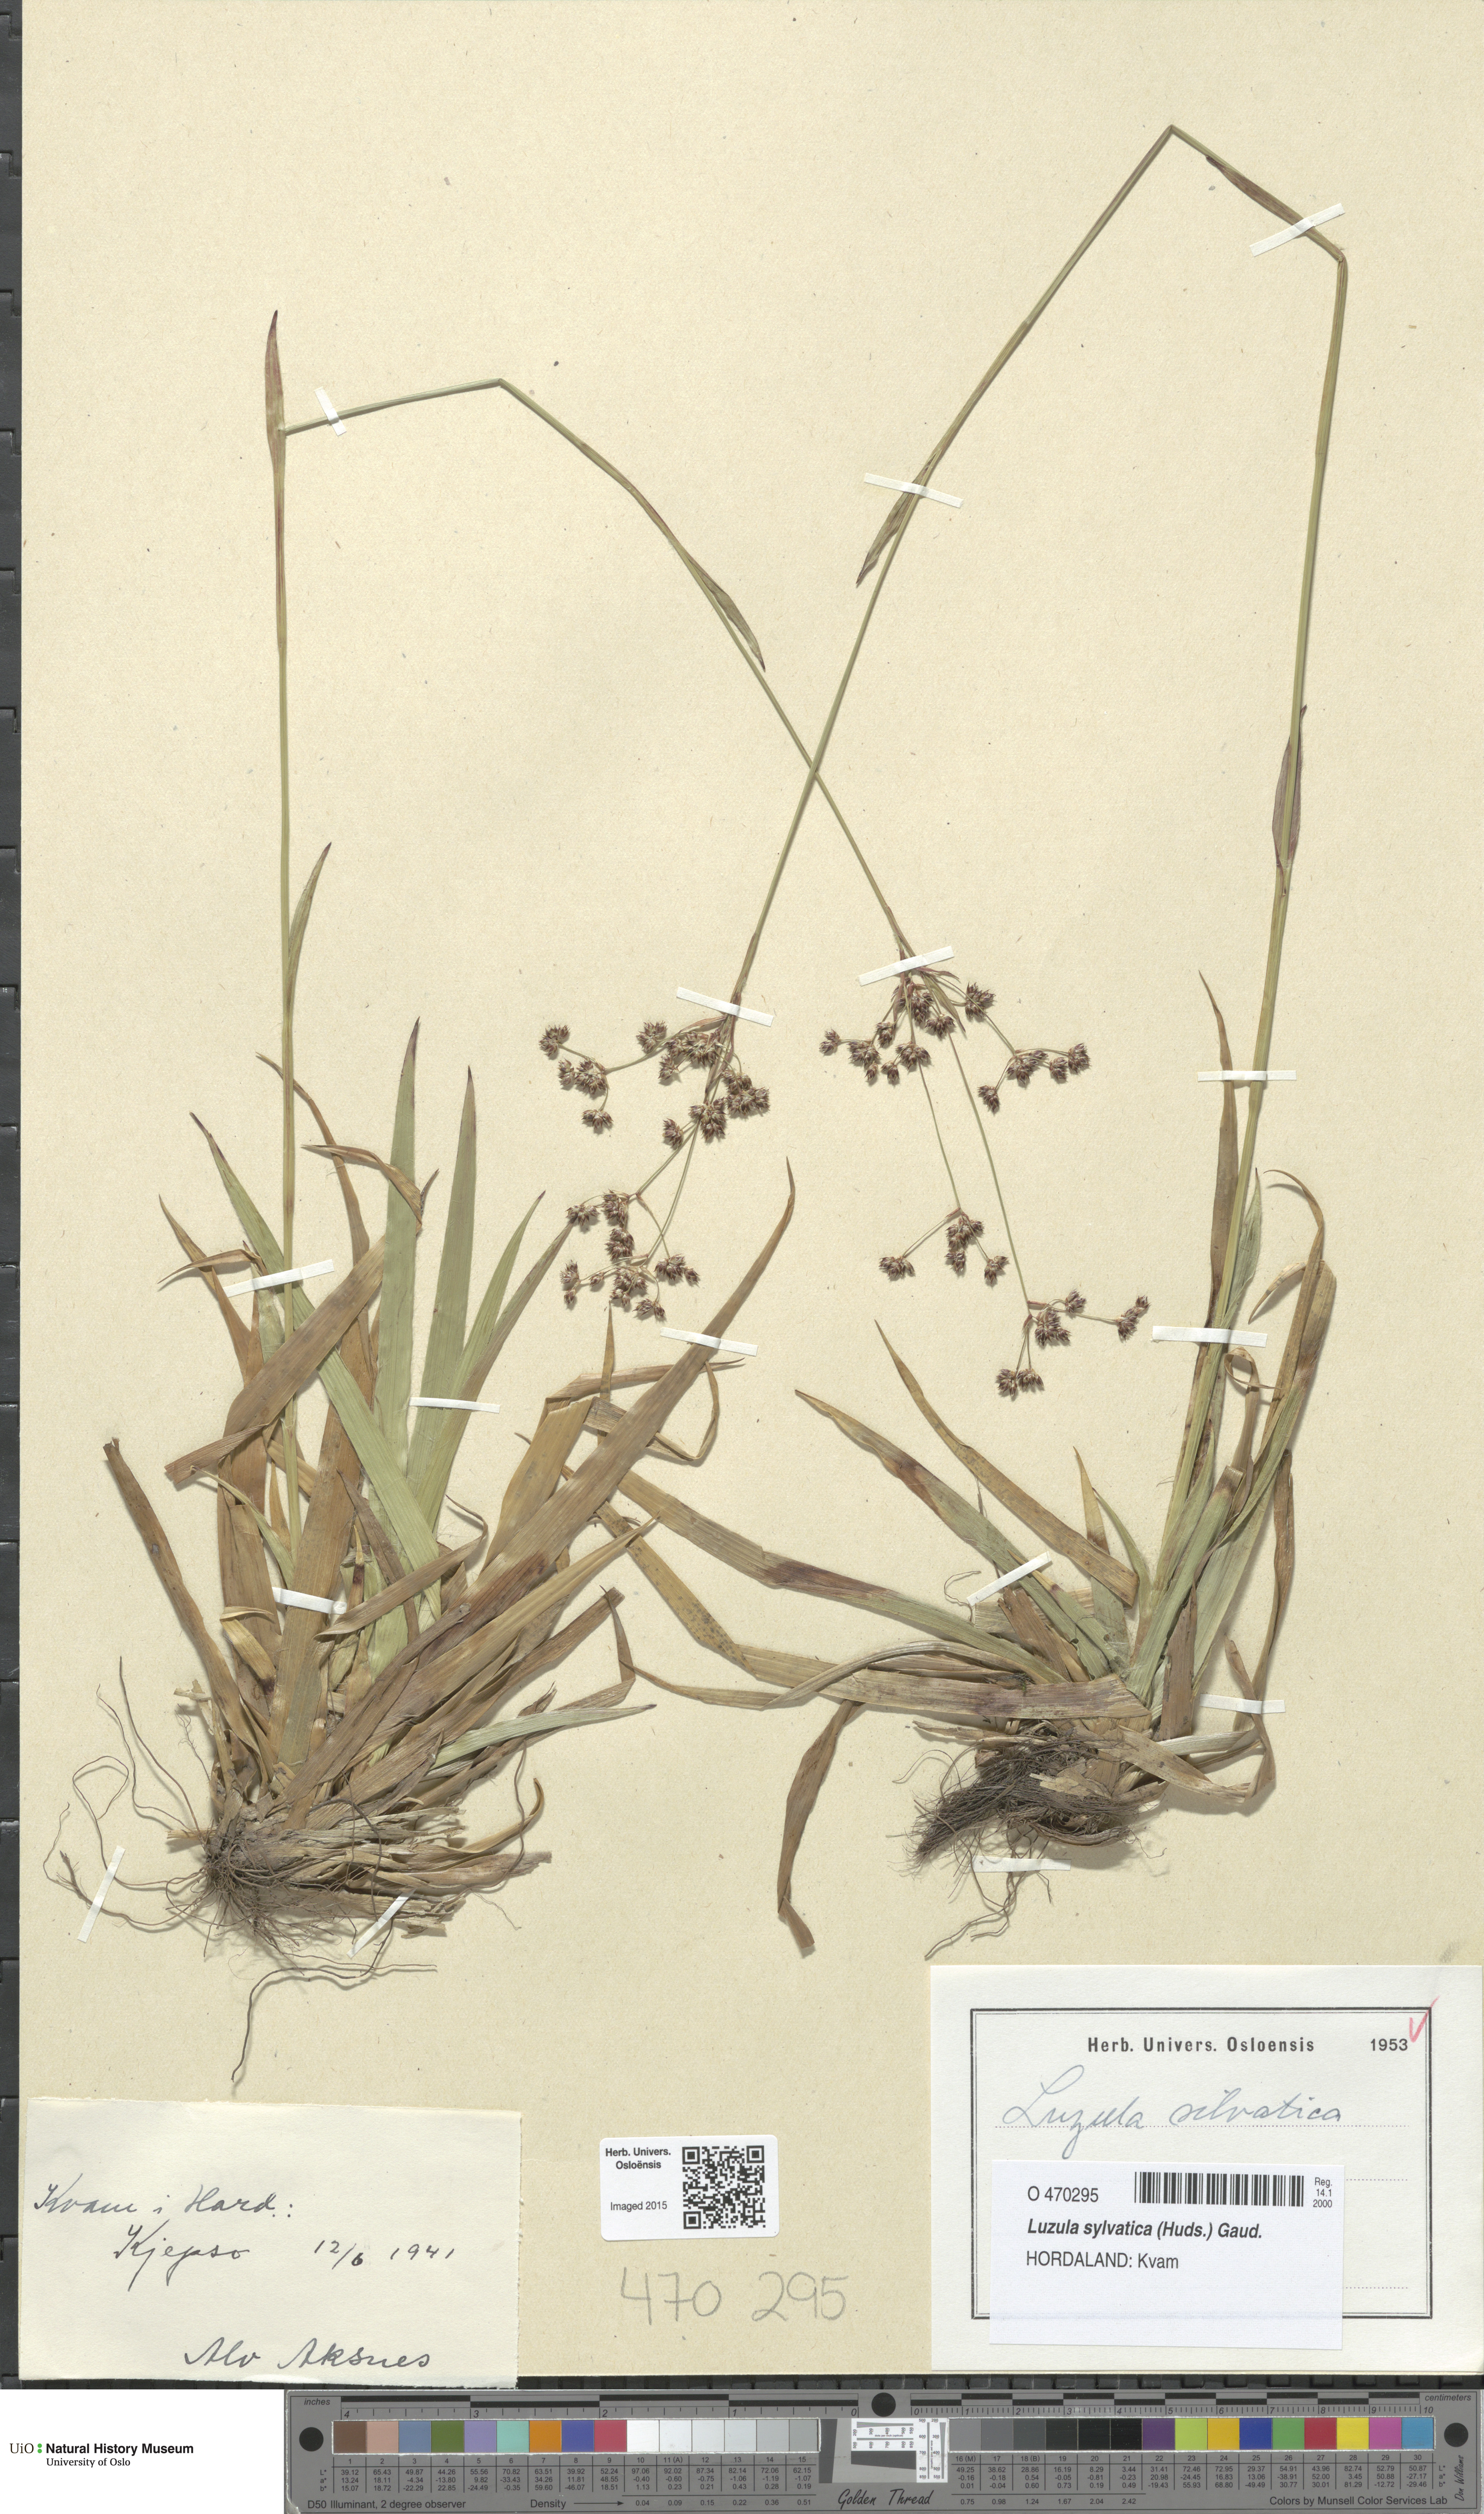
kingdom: Plantae
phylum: Tracheophyta
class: Liliopsida
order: Poales
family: Juncaceae
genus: Luzula
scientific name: Luzula sylvatica
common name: Great wood-rush
